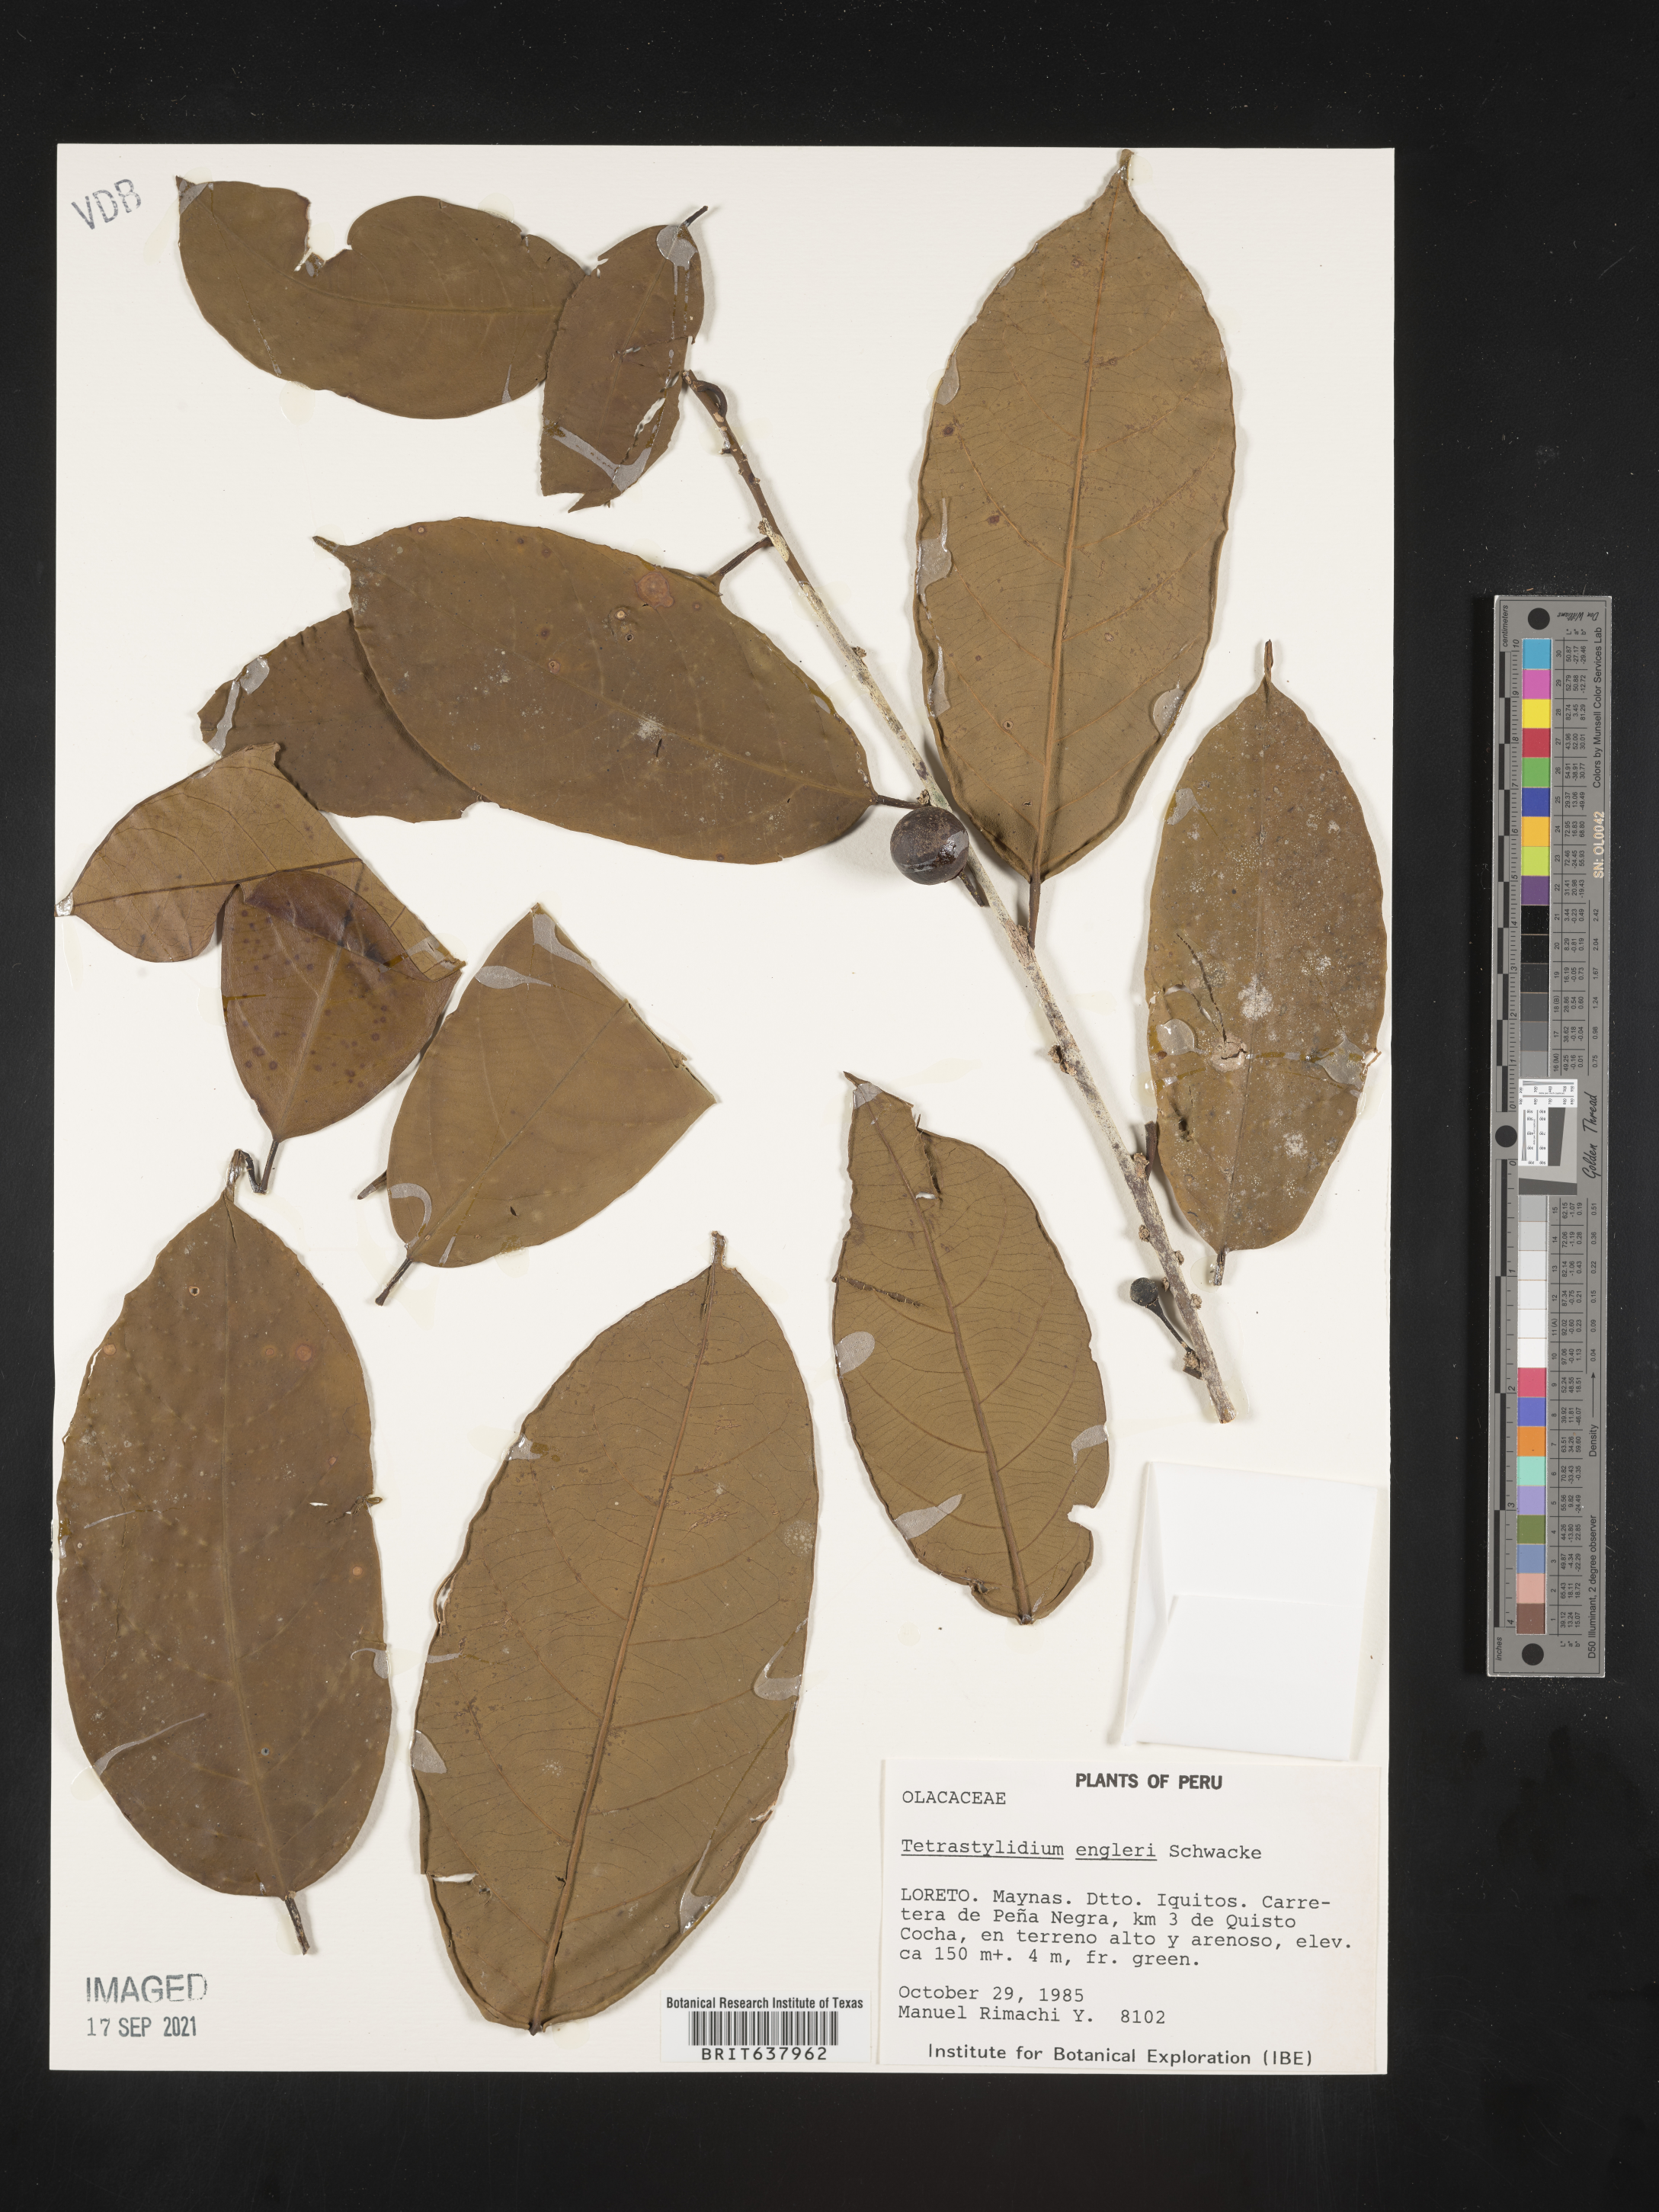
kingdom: Plantae
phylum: Tracheophyta
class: Magnoliopsida
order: Santalales
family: Strombosiaceae
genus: Tetrastylidium
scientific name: Tetrastylidium
